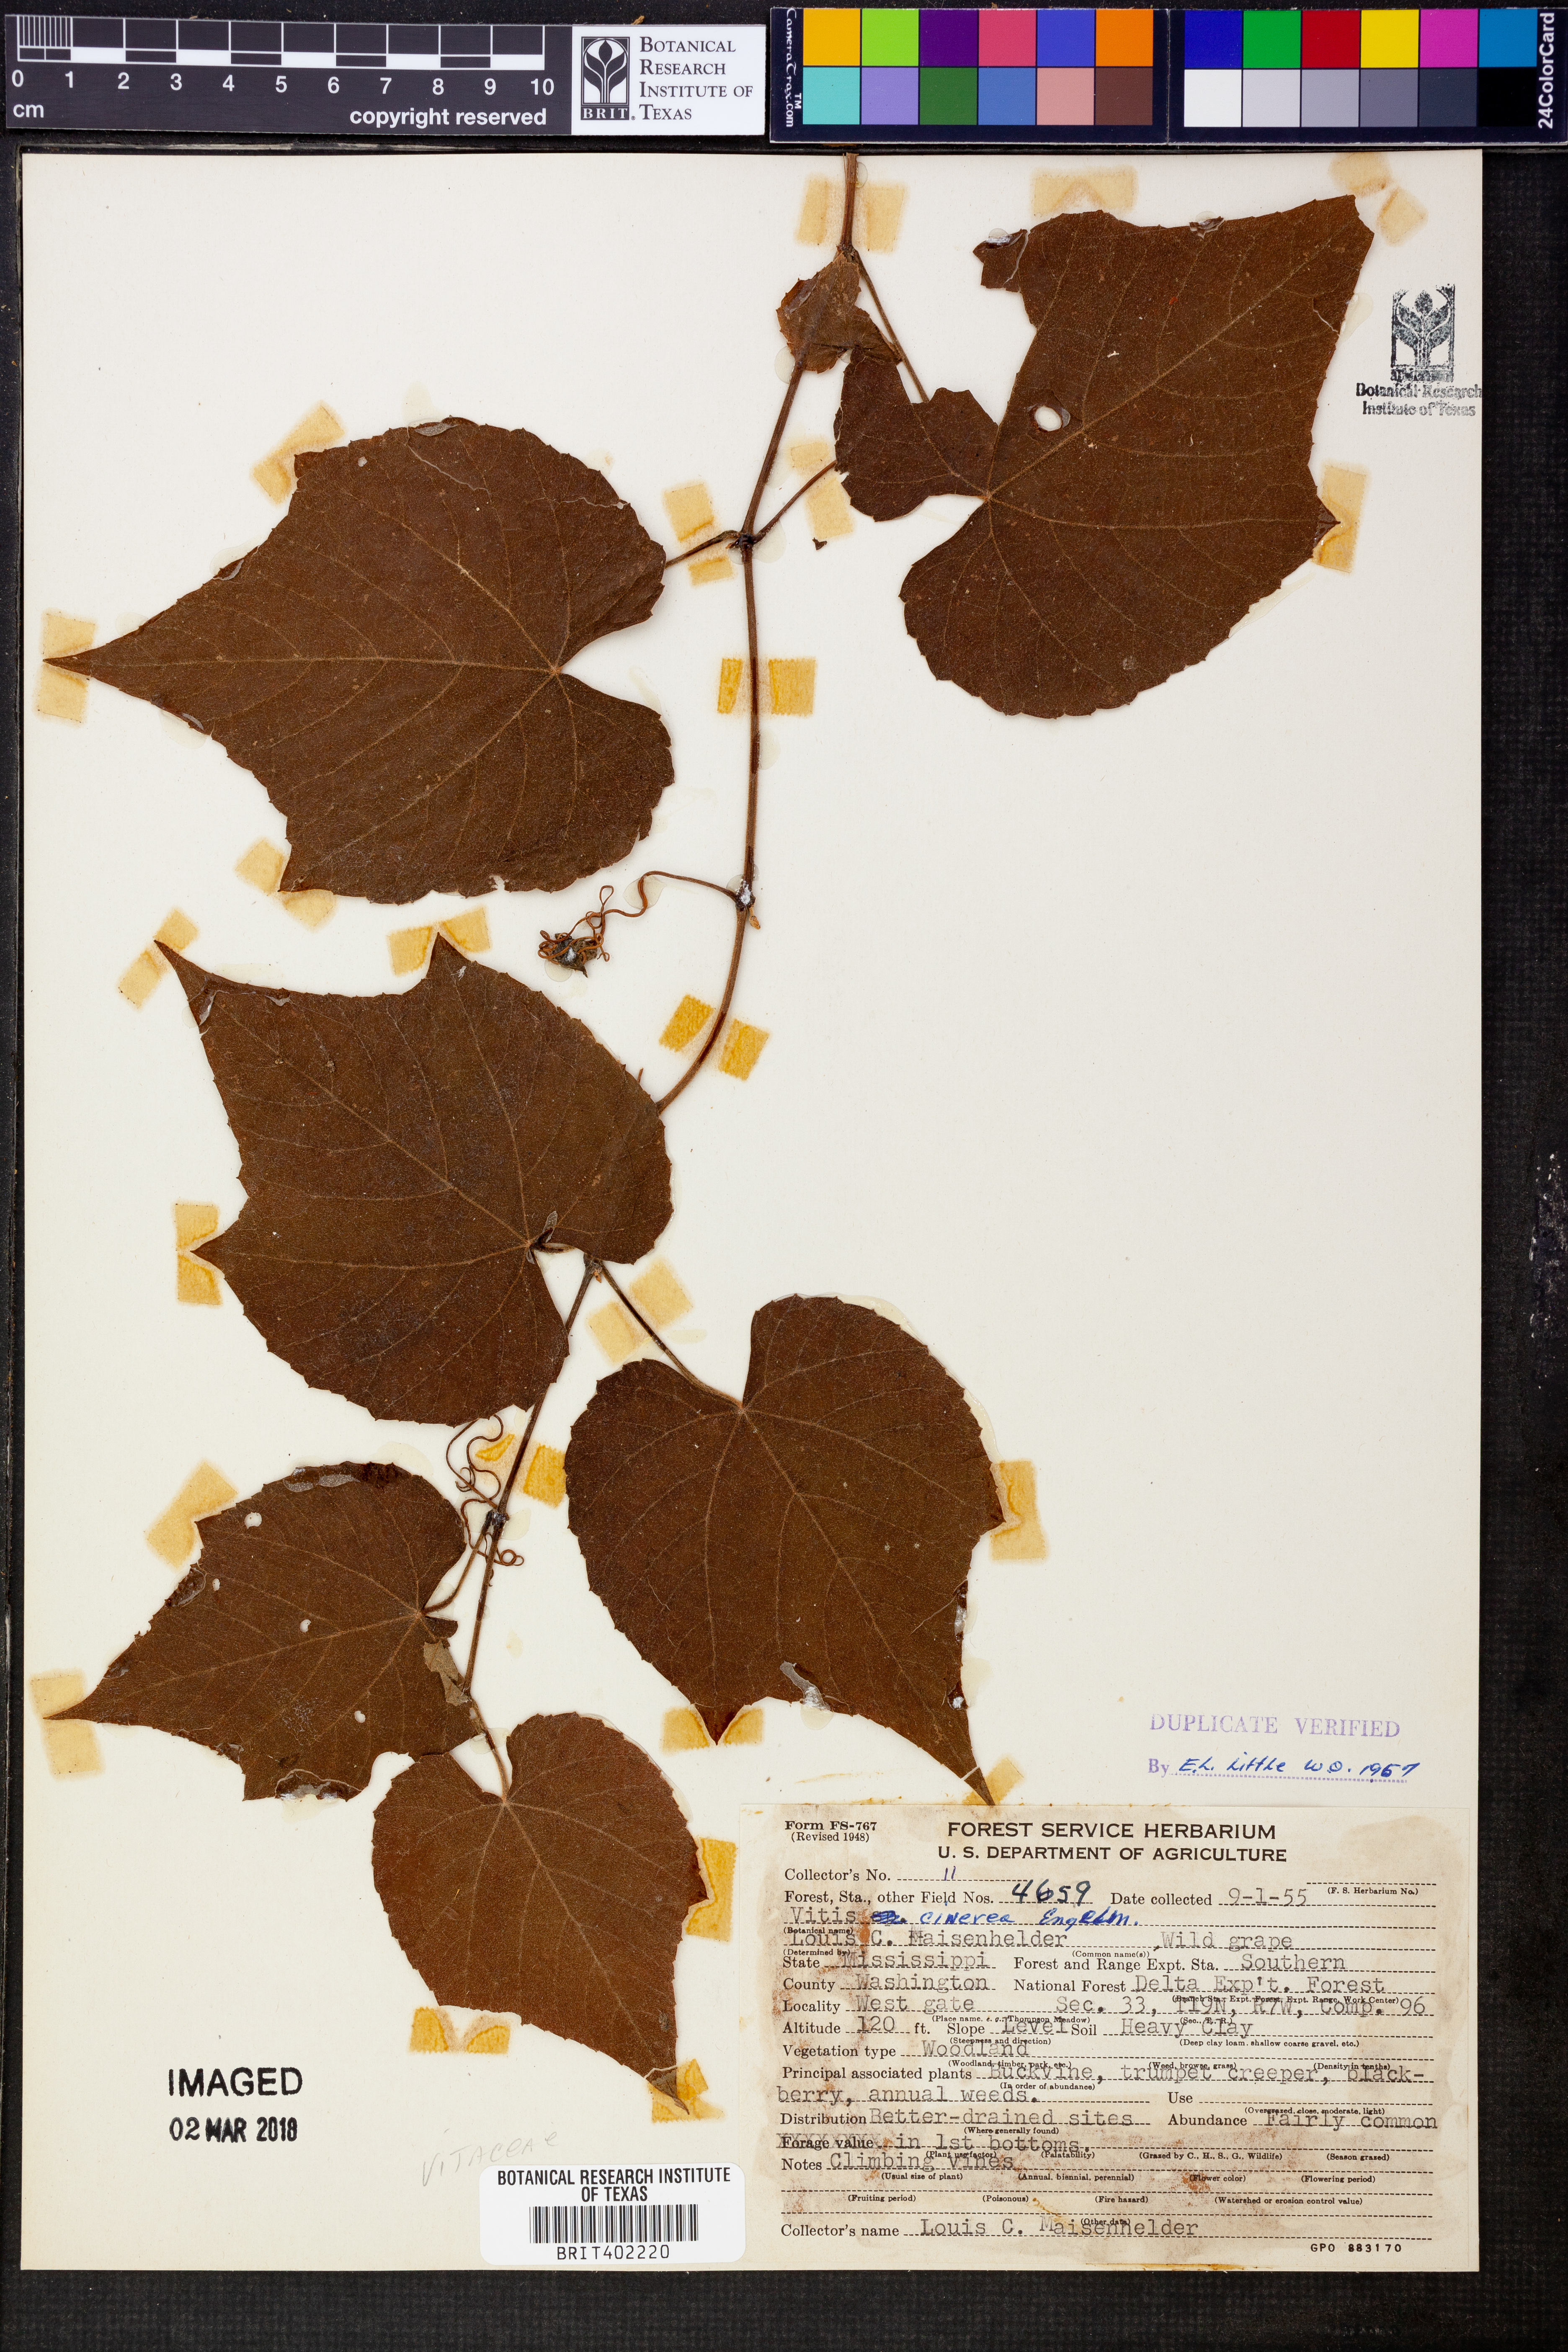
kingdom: Plantae
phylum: Tracheophyta
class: Magnoliopsida
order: Vitales
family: Vitaceae
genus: Vitis
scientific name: Vitis cinerea
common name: Ashy grape
